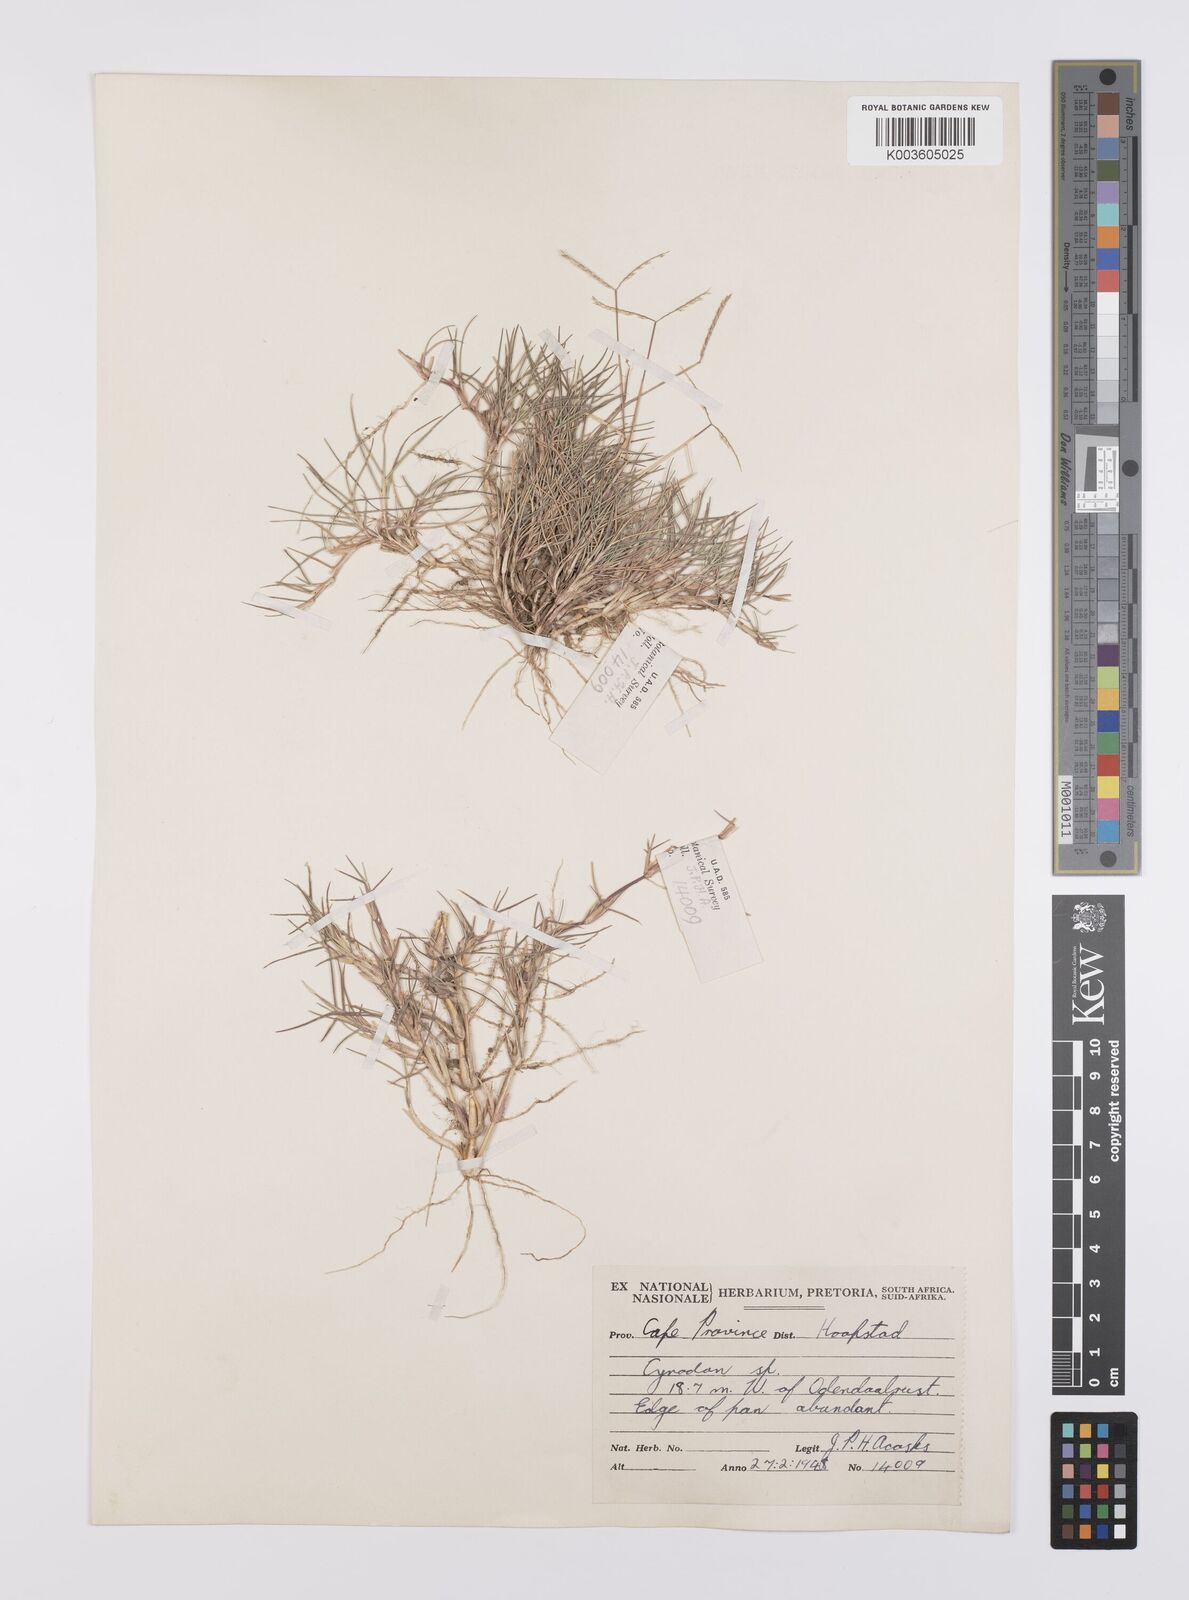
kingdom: Plantae
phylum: Tracheophyta
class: Liliopsida
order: Poales
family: Poaceae
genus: Cynodon
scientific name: Cynodon transvaalensis
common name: African bermuda grass
